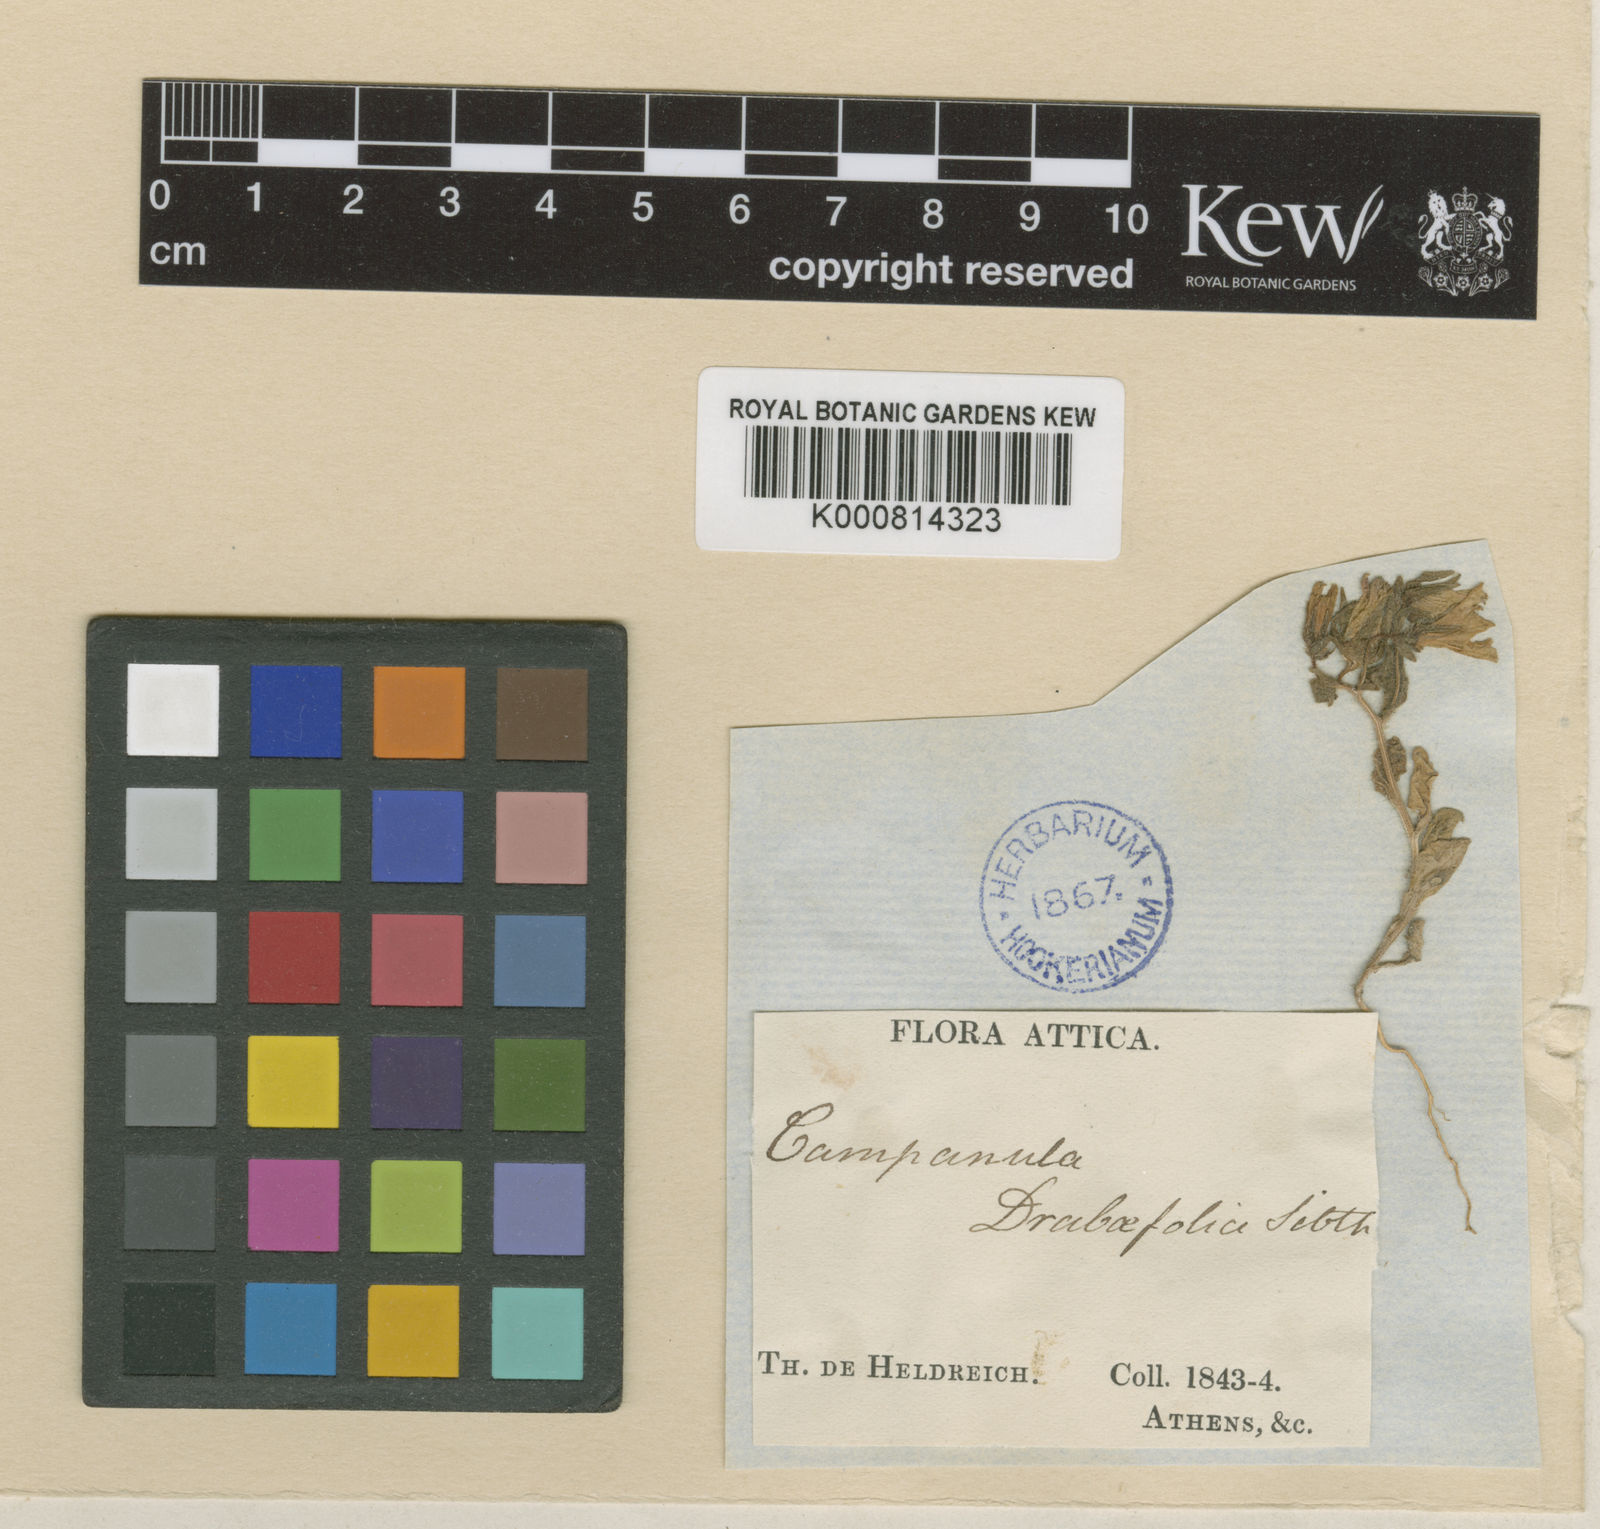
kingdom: Plantae
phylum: Tracheophyta
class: Magnoliopsida
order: Asterales
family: Campanulaceae
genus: Campanula
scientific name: Campanula
